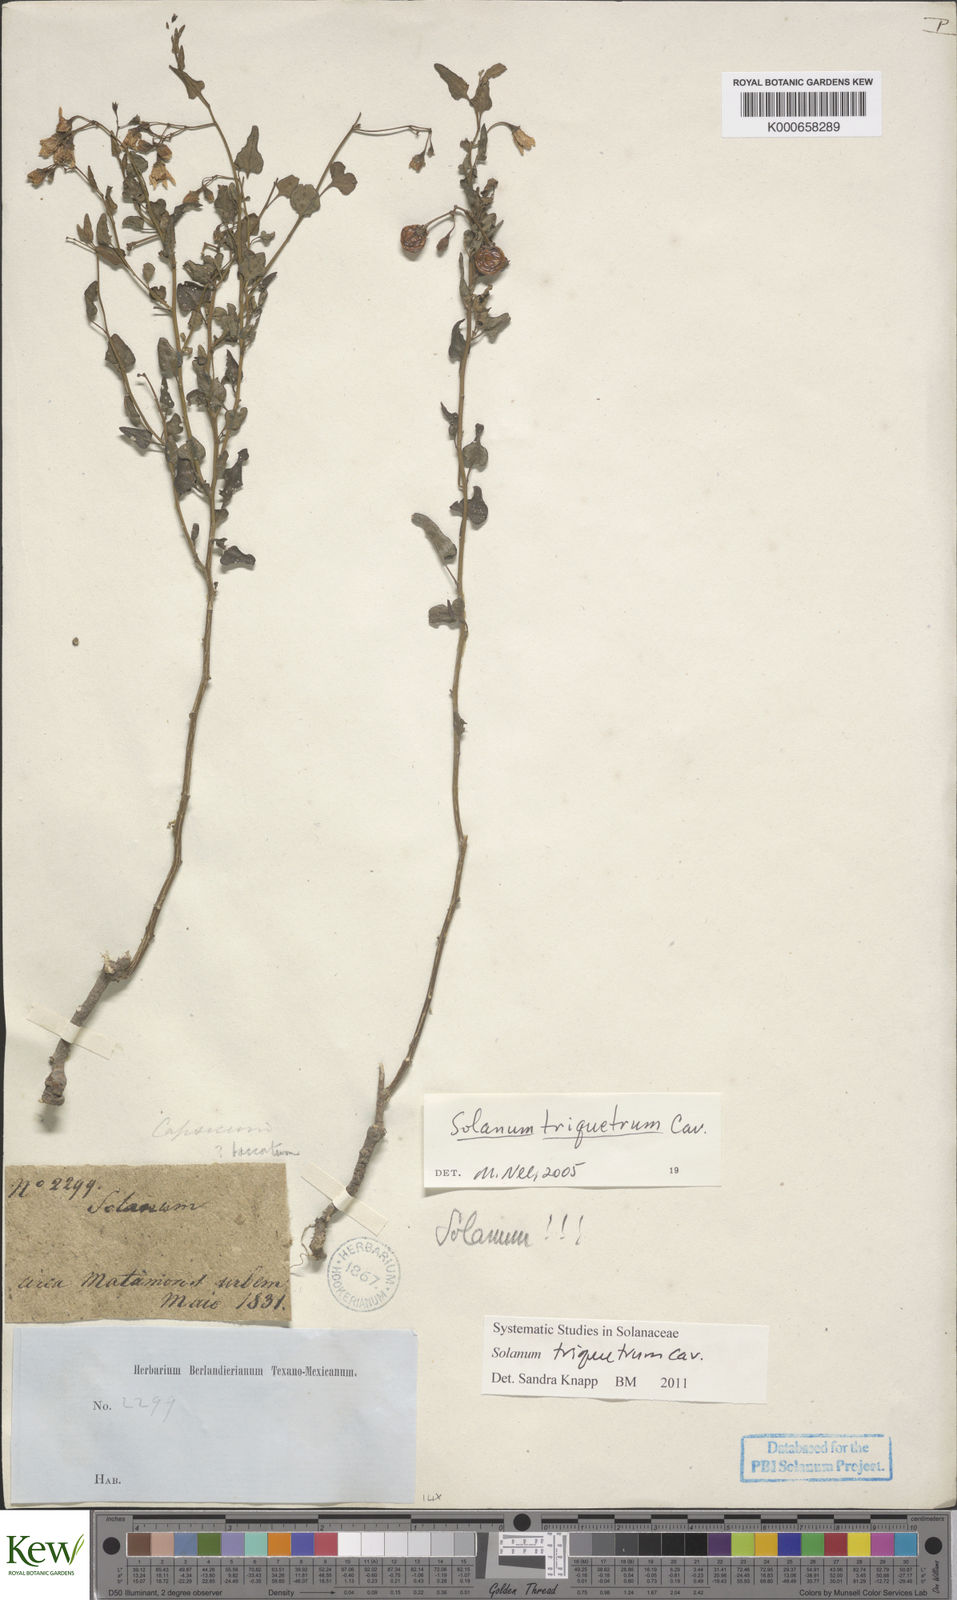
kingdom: Plantae
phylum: Tracheophyta
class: Magnoliopsida
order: Solanales
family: Solanaceae
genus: Solanum
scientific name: Solanum triquetrum
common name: Texas nightshade
